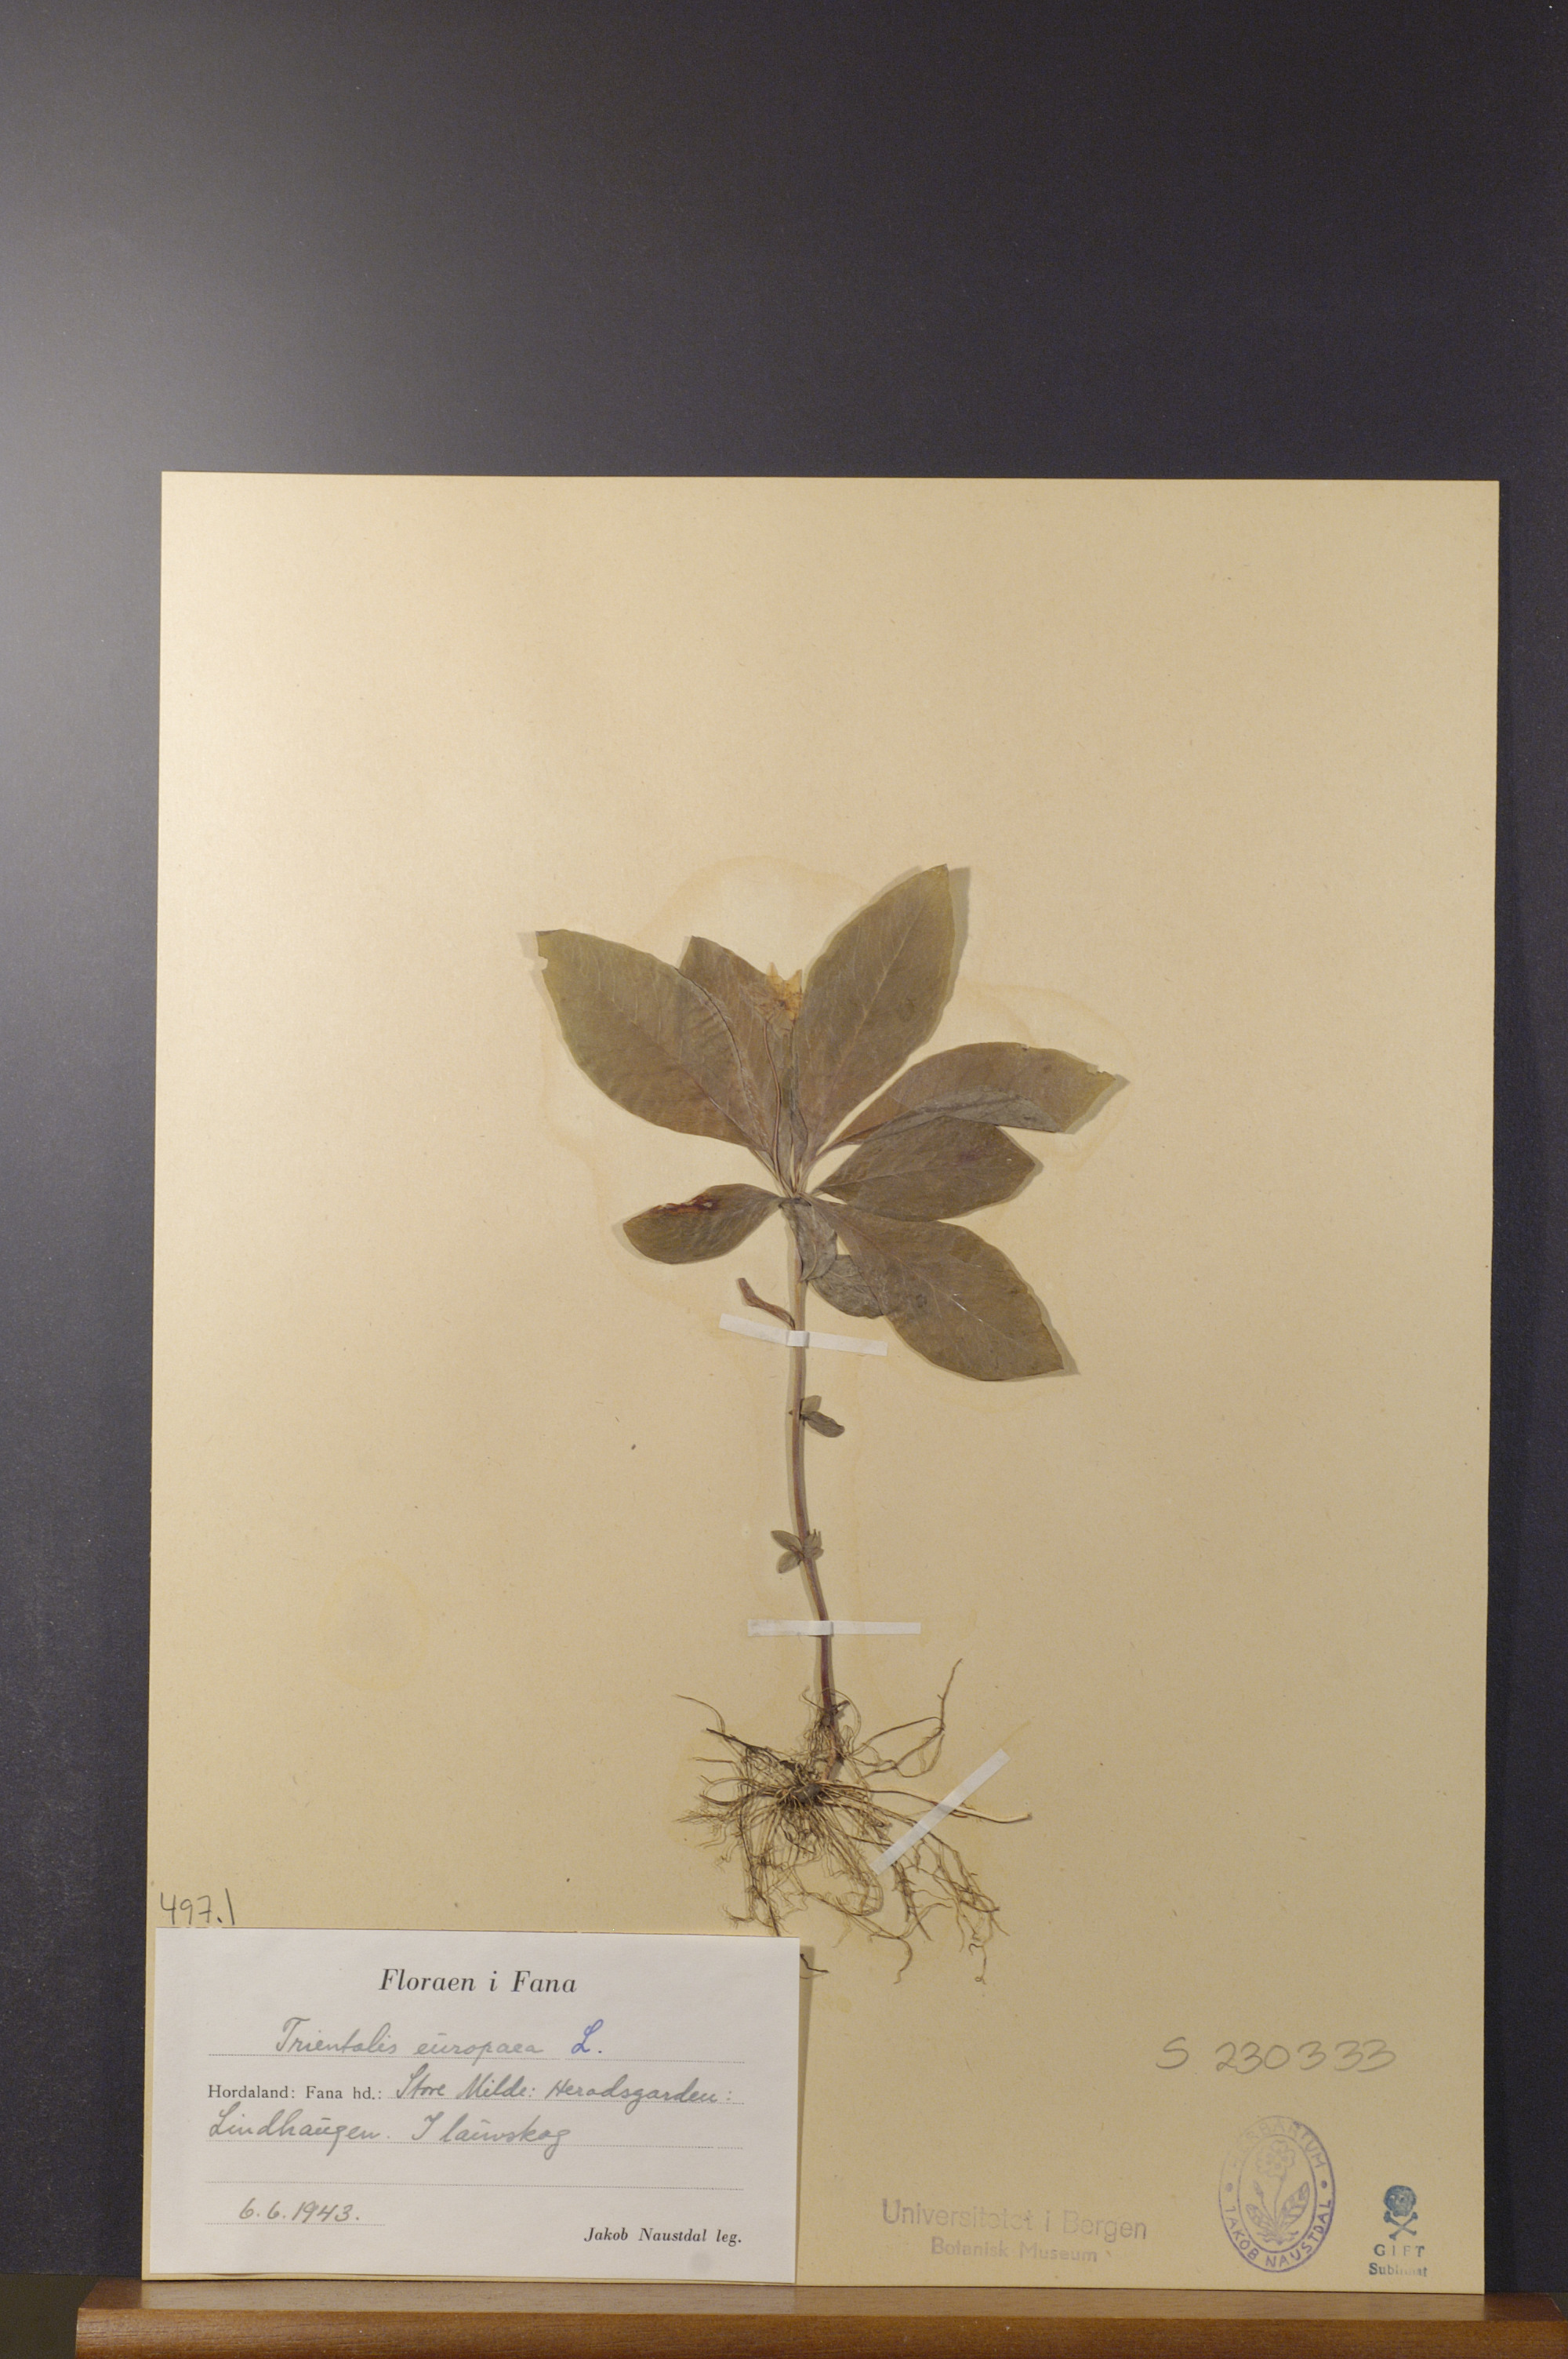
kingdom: Plantae
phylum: Tracheophyta
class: Magnoliopsida
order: Ericales
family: Primulaceae
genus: Lysimachia
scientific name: Lysimachia europaea
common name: Arctic starflower
